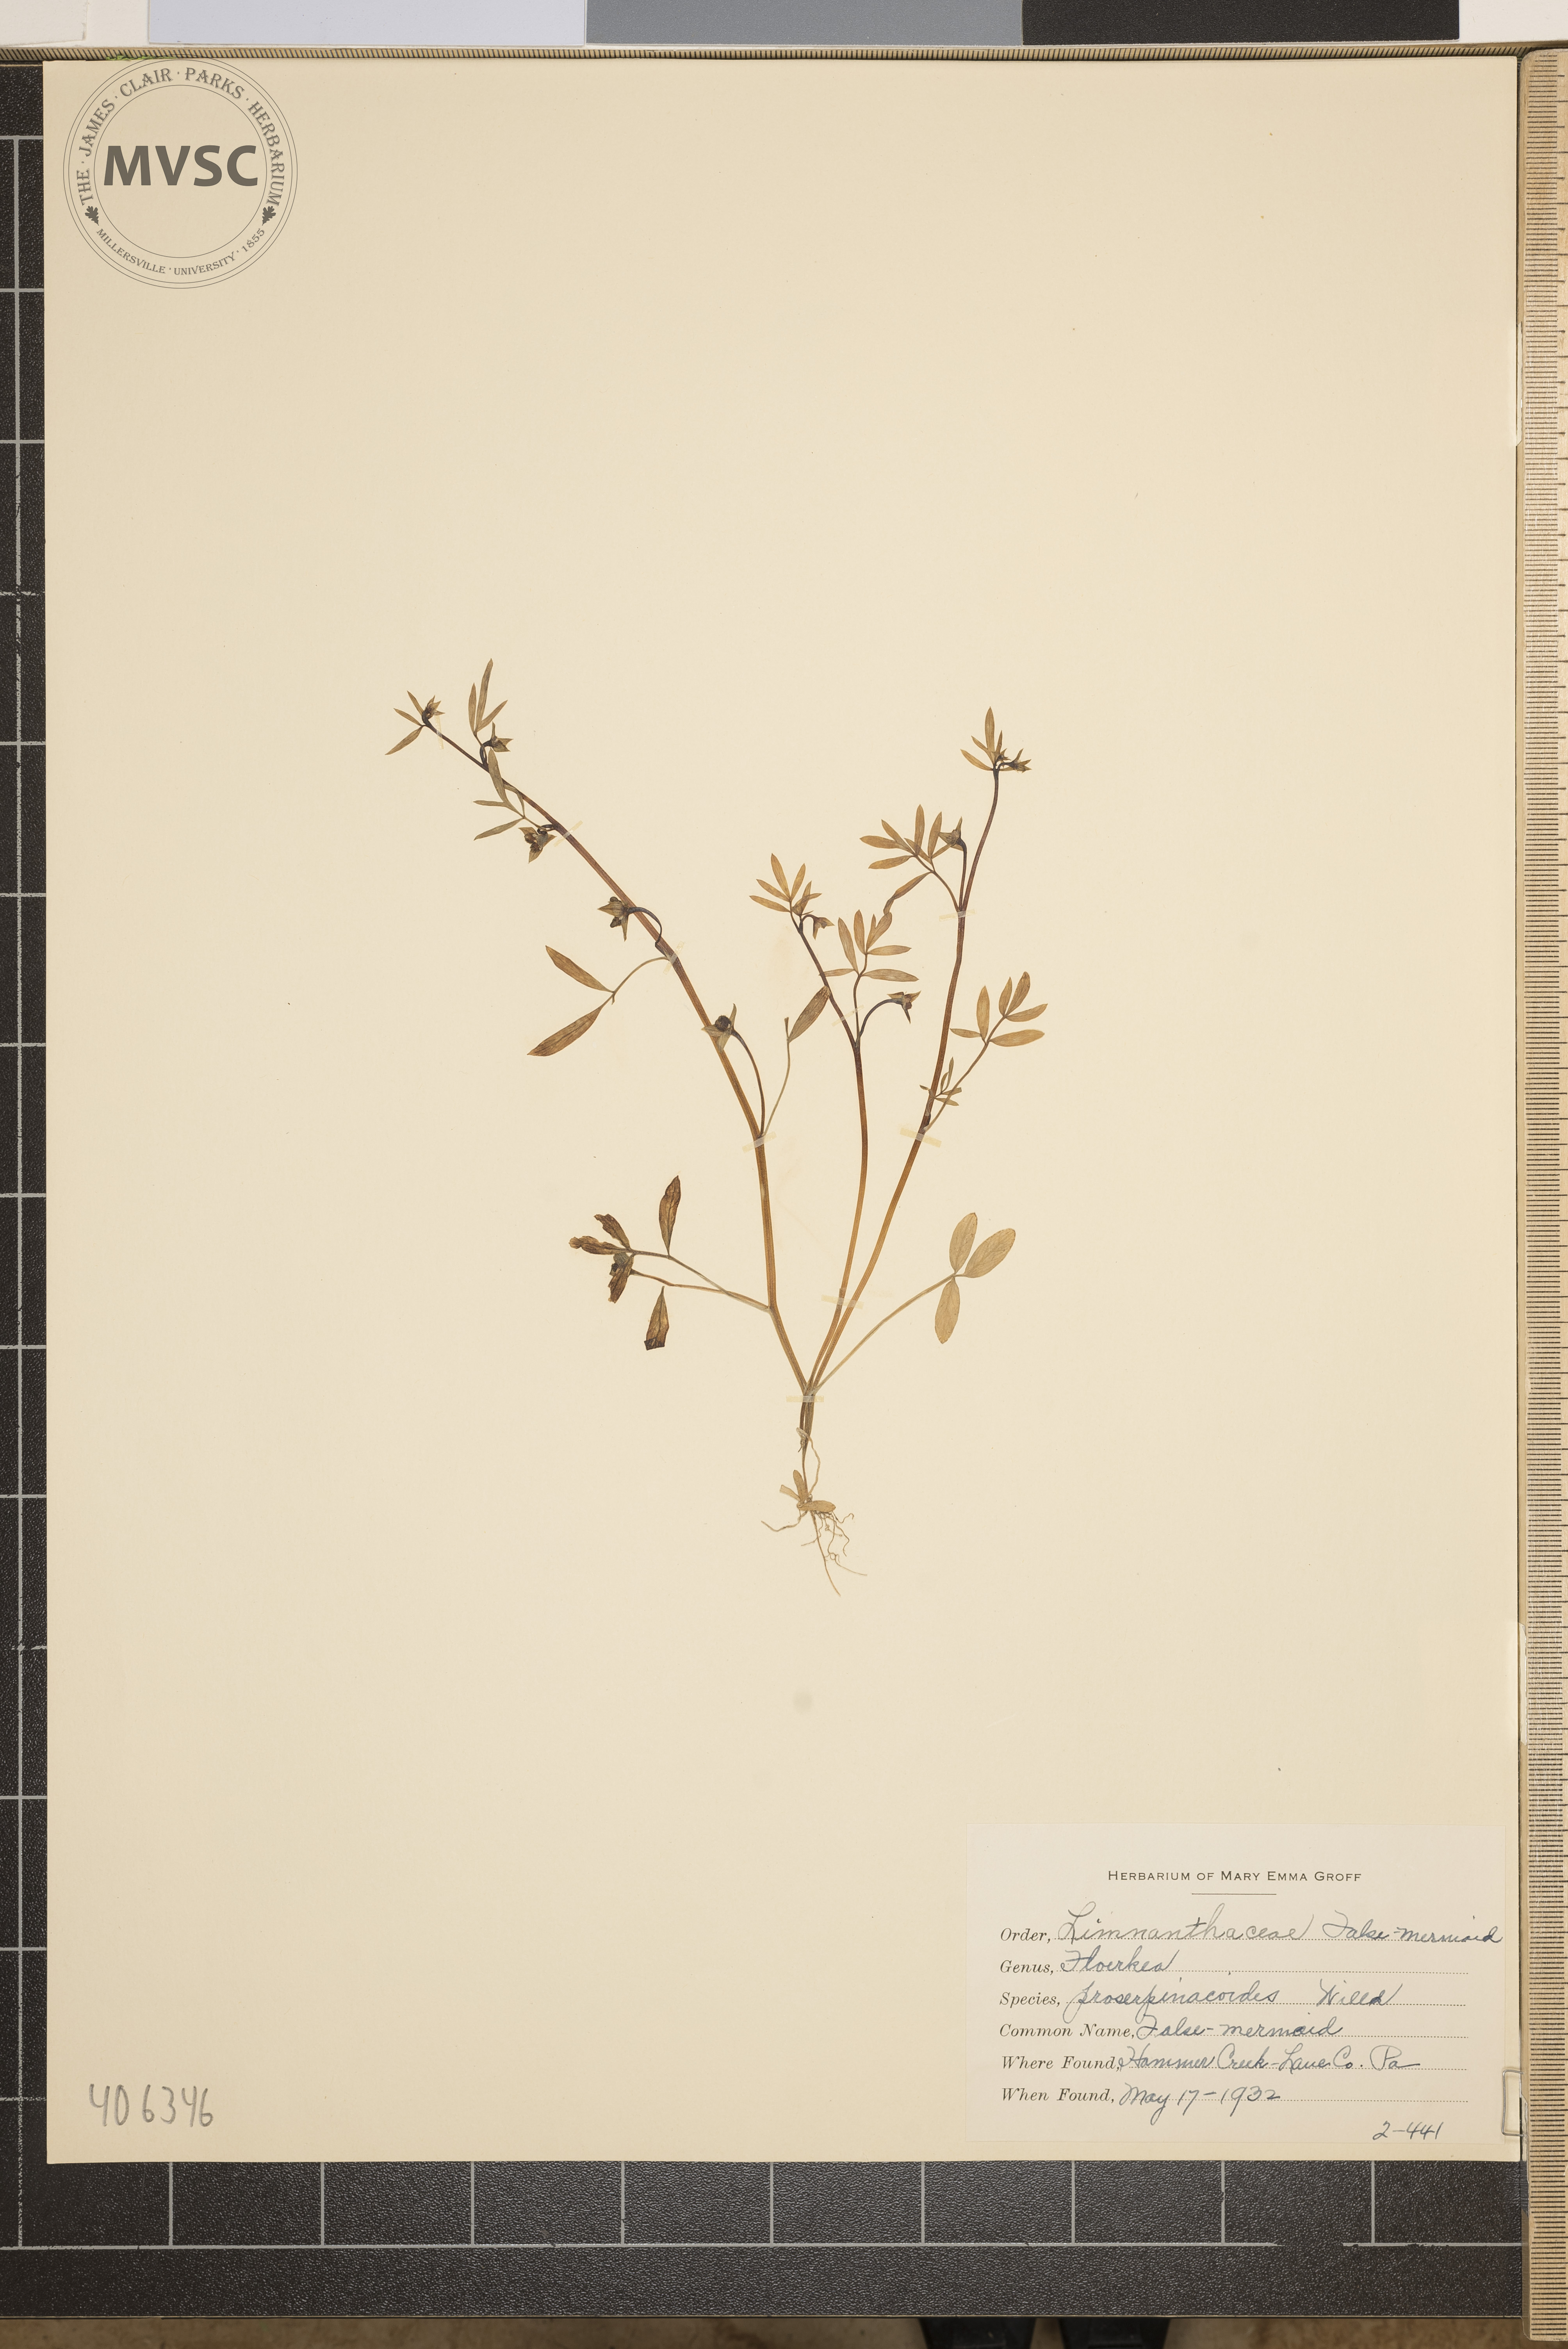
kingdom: Plantae
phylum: Tracheophyta
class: Magnoliopsida
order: Brassicales
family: Limnanthaceae
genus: Floerkea
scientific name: Floerkea proserpinacoides
